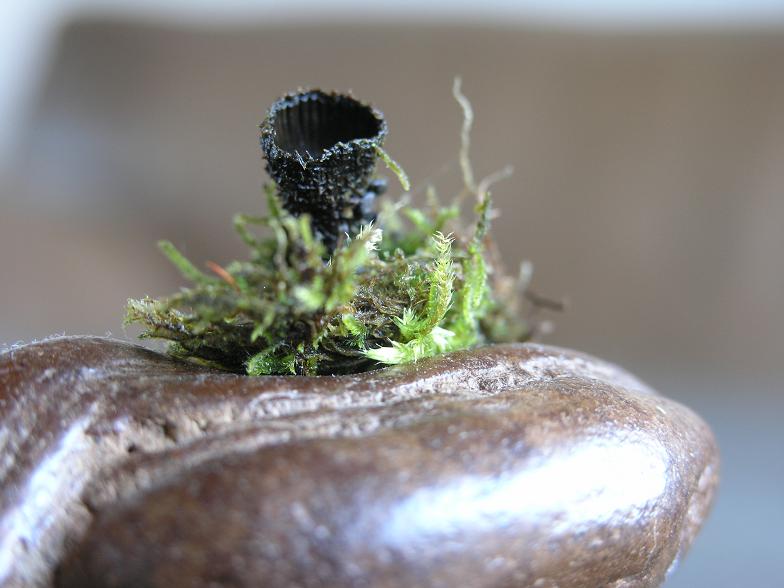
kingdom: Fungi
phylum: Basidiomycota
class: Agaricomycetes
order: Agaricales
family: Agaricaceae
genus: Cyathus
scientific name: Cyathus striatus
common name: stribet redesvamp
